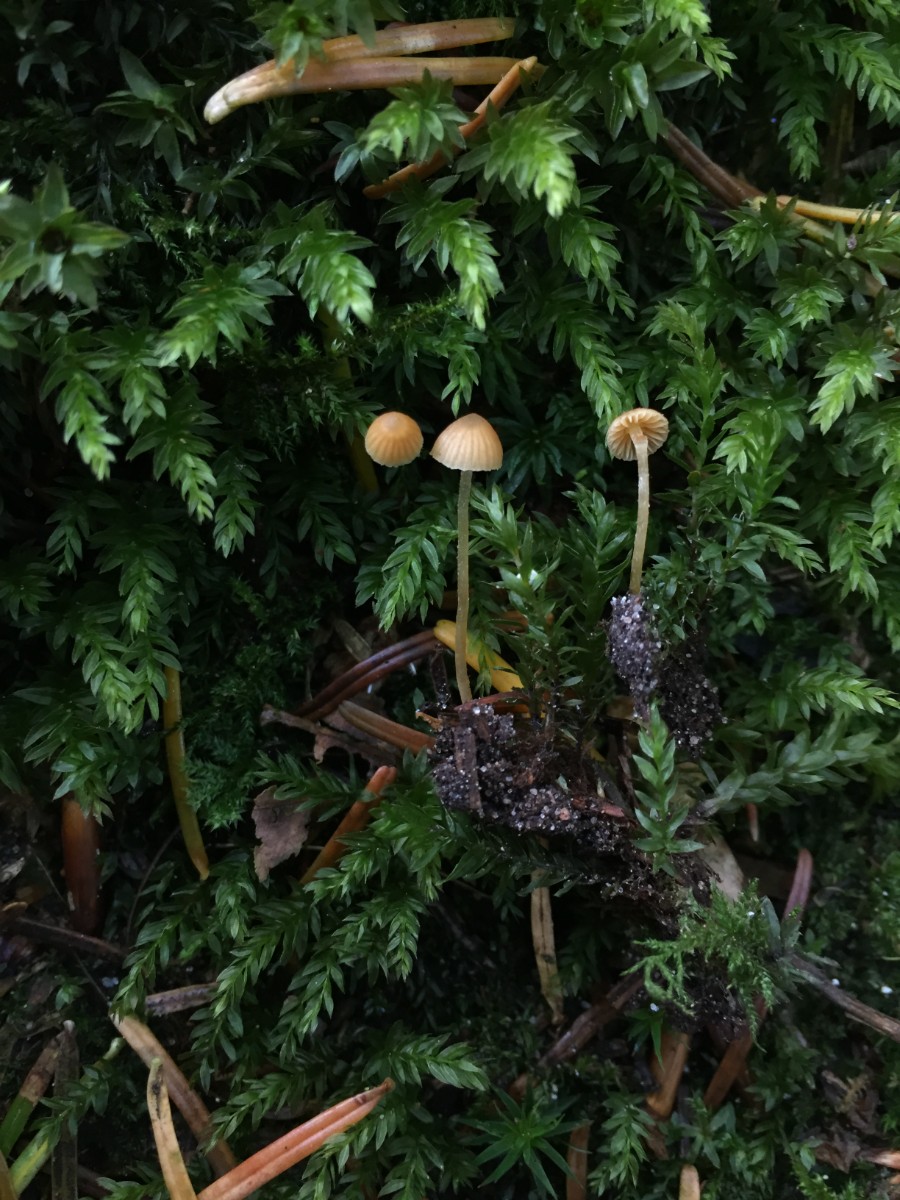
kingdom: Fungi
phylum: Basidiomycota
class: Agaricomycetes
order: Agaricales
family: Hymenogastraceae
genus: Galerina
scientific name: Galerina hypnorum
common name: mos-hjelmhat
